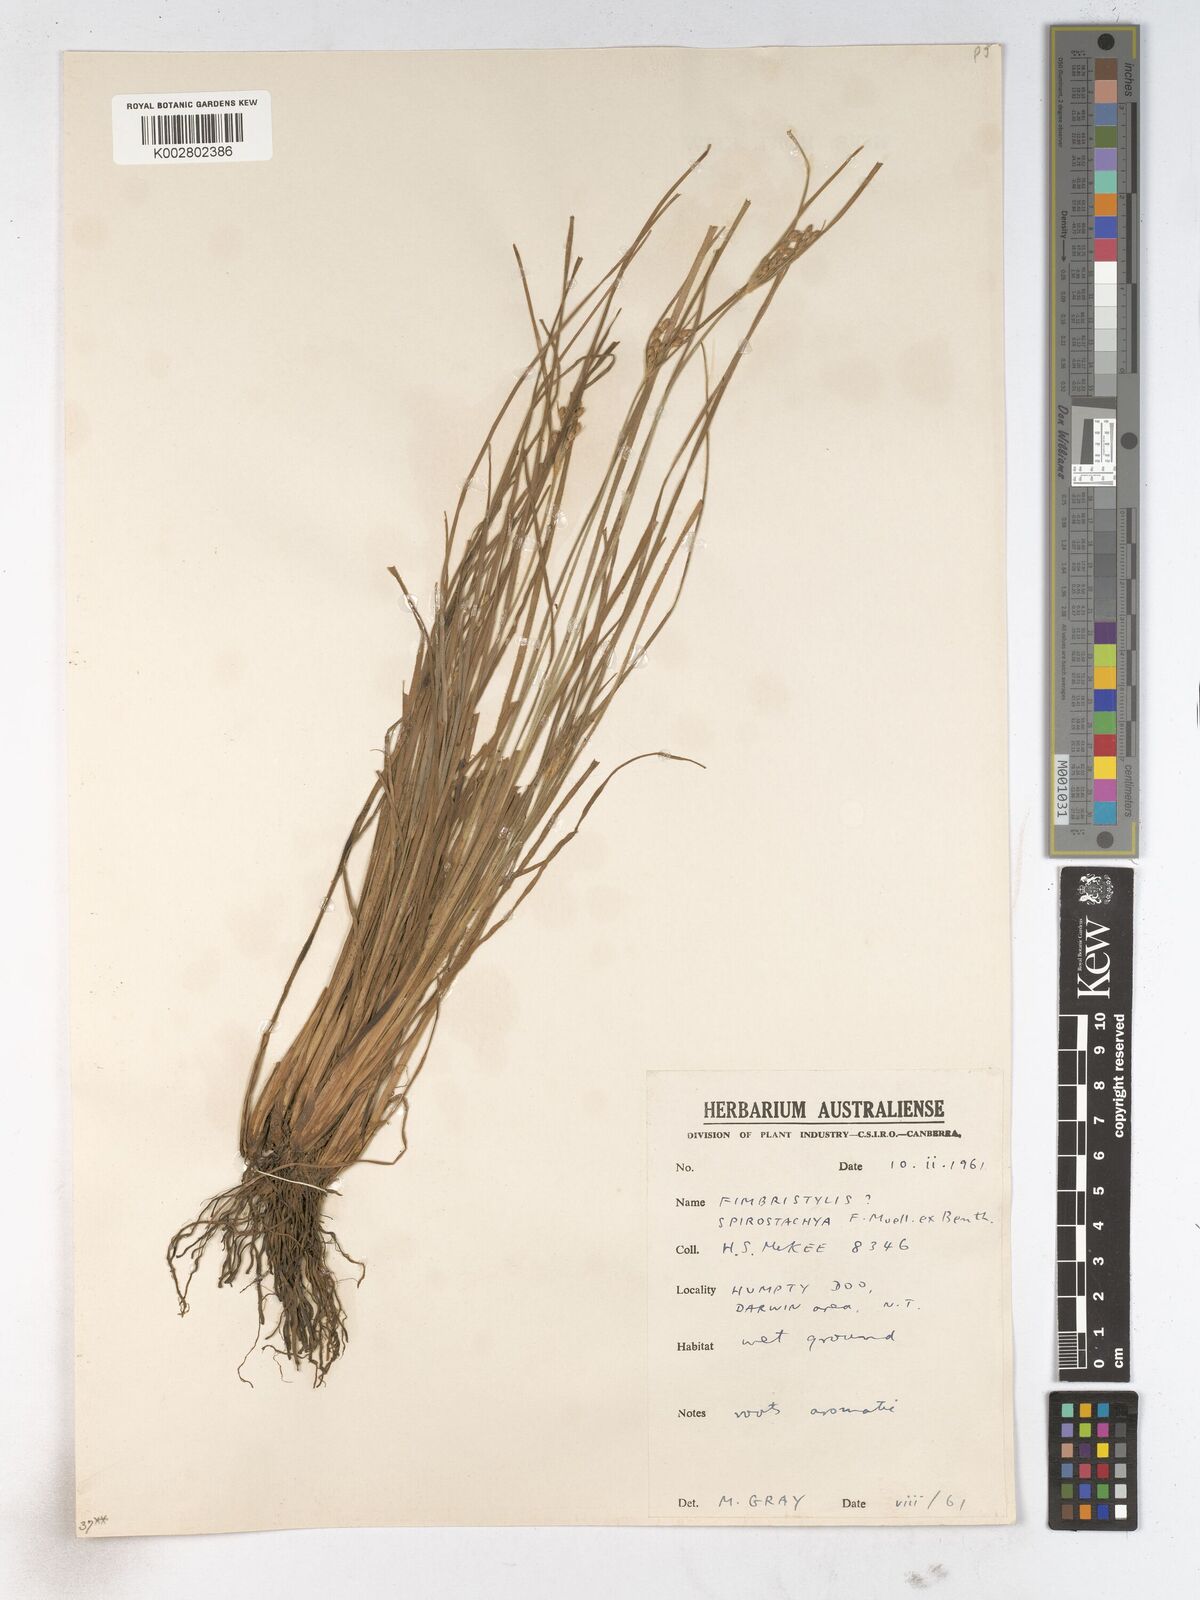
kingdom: Plantae
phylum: Tracheophyta
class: Liliopsida
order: Poales
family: Cyperaceae
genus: Fimbristylis
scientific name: Fimbristylis dichotoma
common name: Forked fimbry
